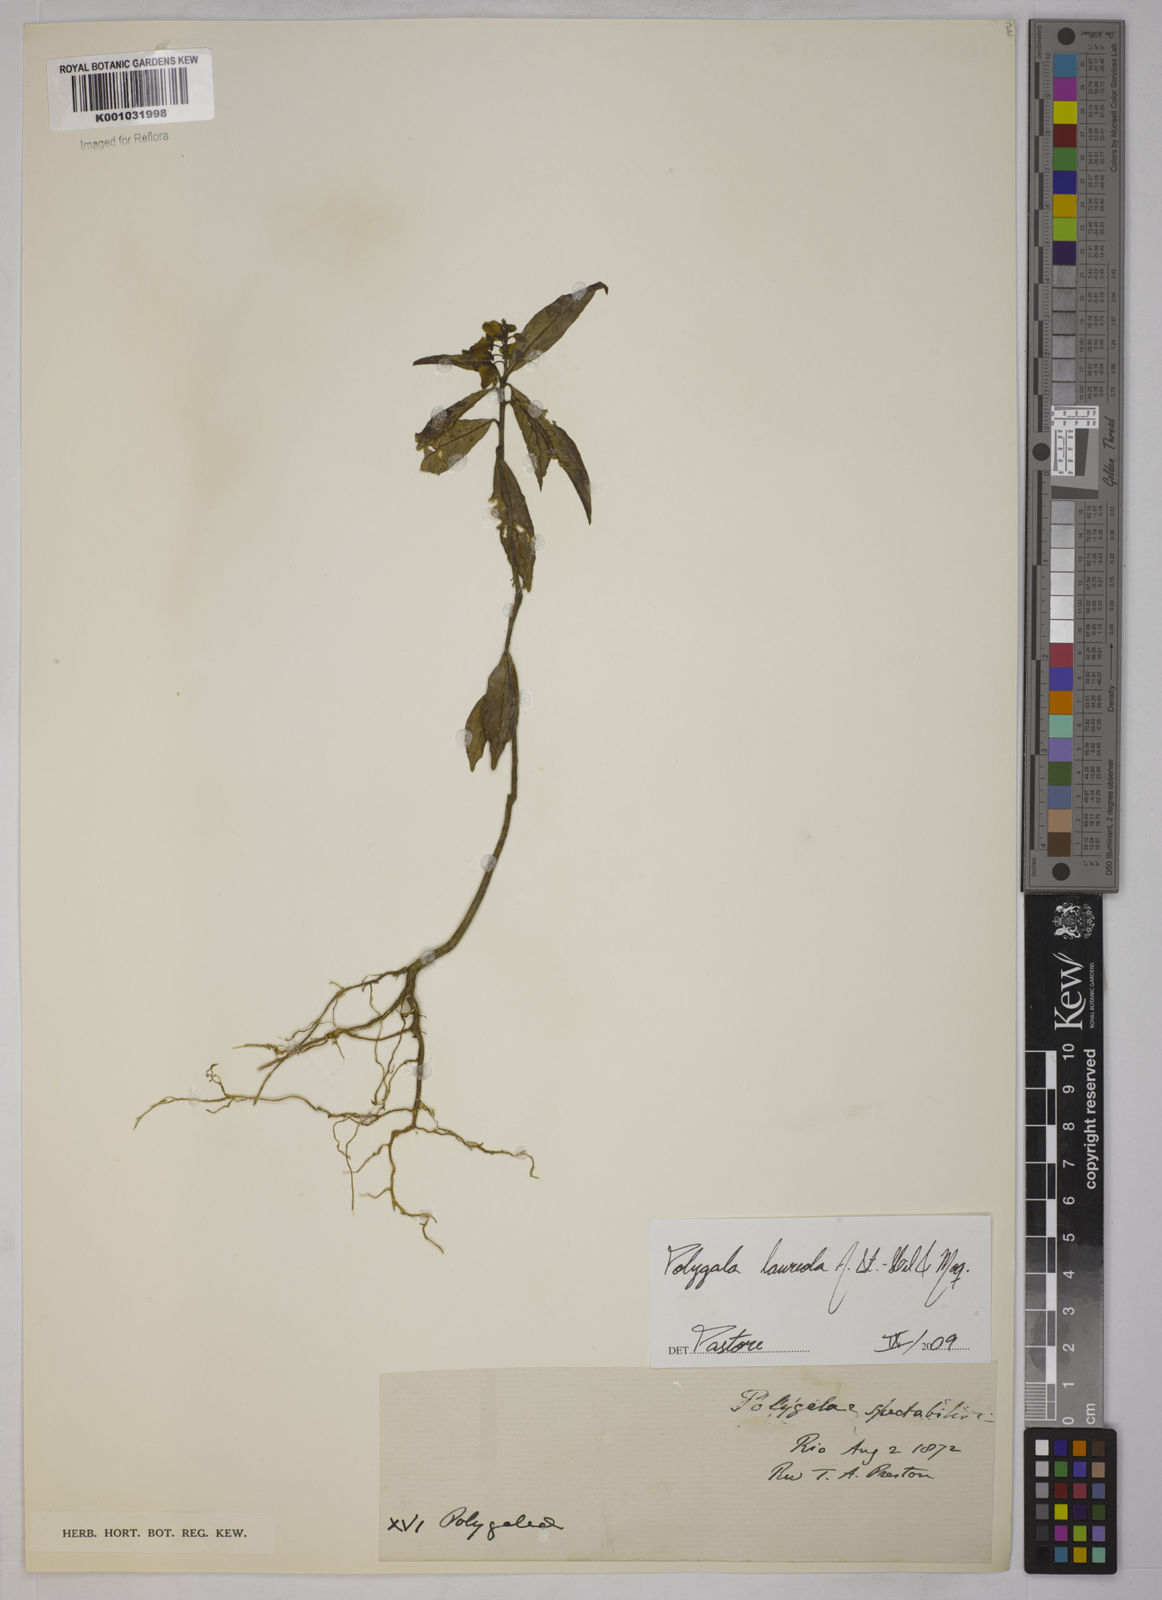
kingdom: Plantae
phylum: Tracheophyta
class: Magnoliopsida
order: Fabales
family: Polygalaceae
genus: Caamembeca
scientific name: Caamembeca salicifolia
